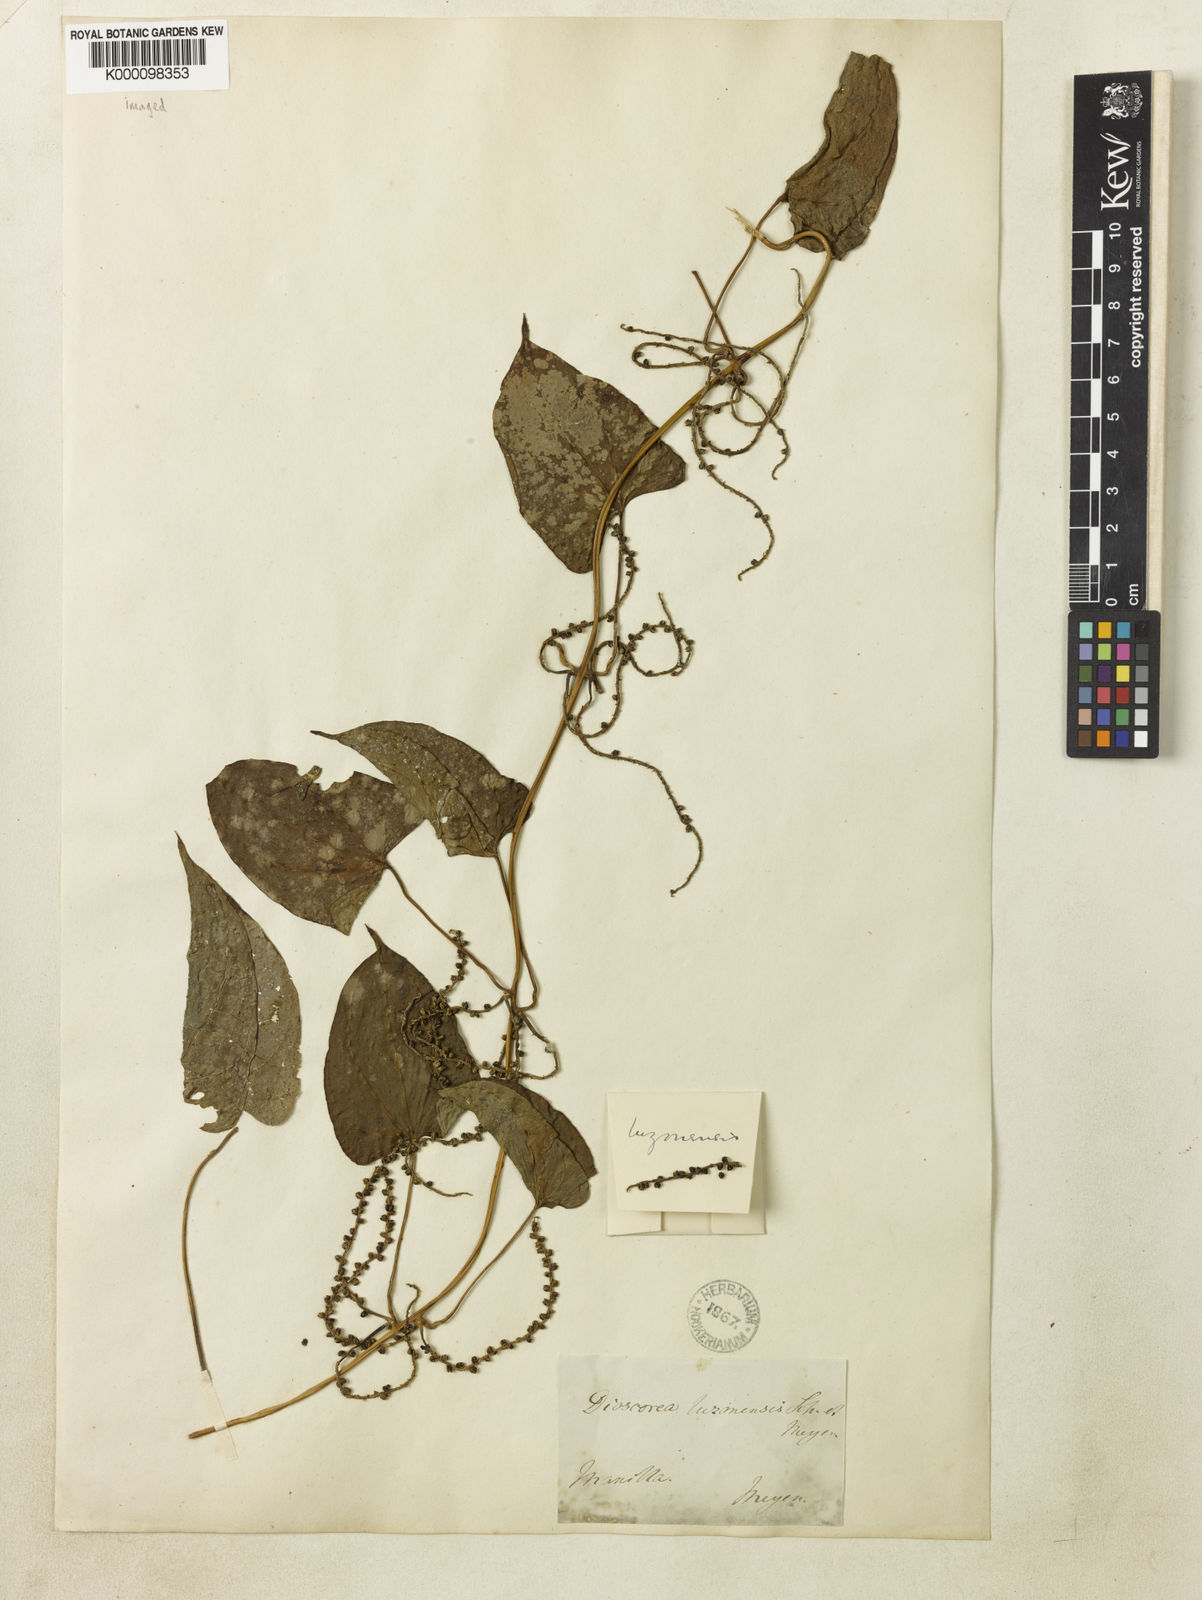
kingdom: Plantae
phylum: Tracheophyta
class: Liliopsida
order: Dioscoreales
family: Dioscoreaceae
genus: Dioscorea
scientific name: Dioscorea luzonensis
